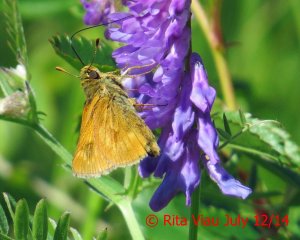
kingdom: Animalia
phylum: Arthropoda
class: Insecta
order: Lepidoptera
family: Hesperiidae
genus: Polites
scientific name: Polites
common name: Long Dash Skipper
